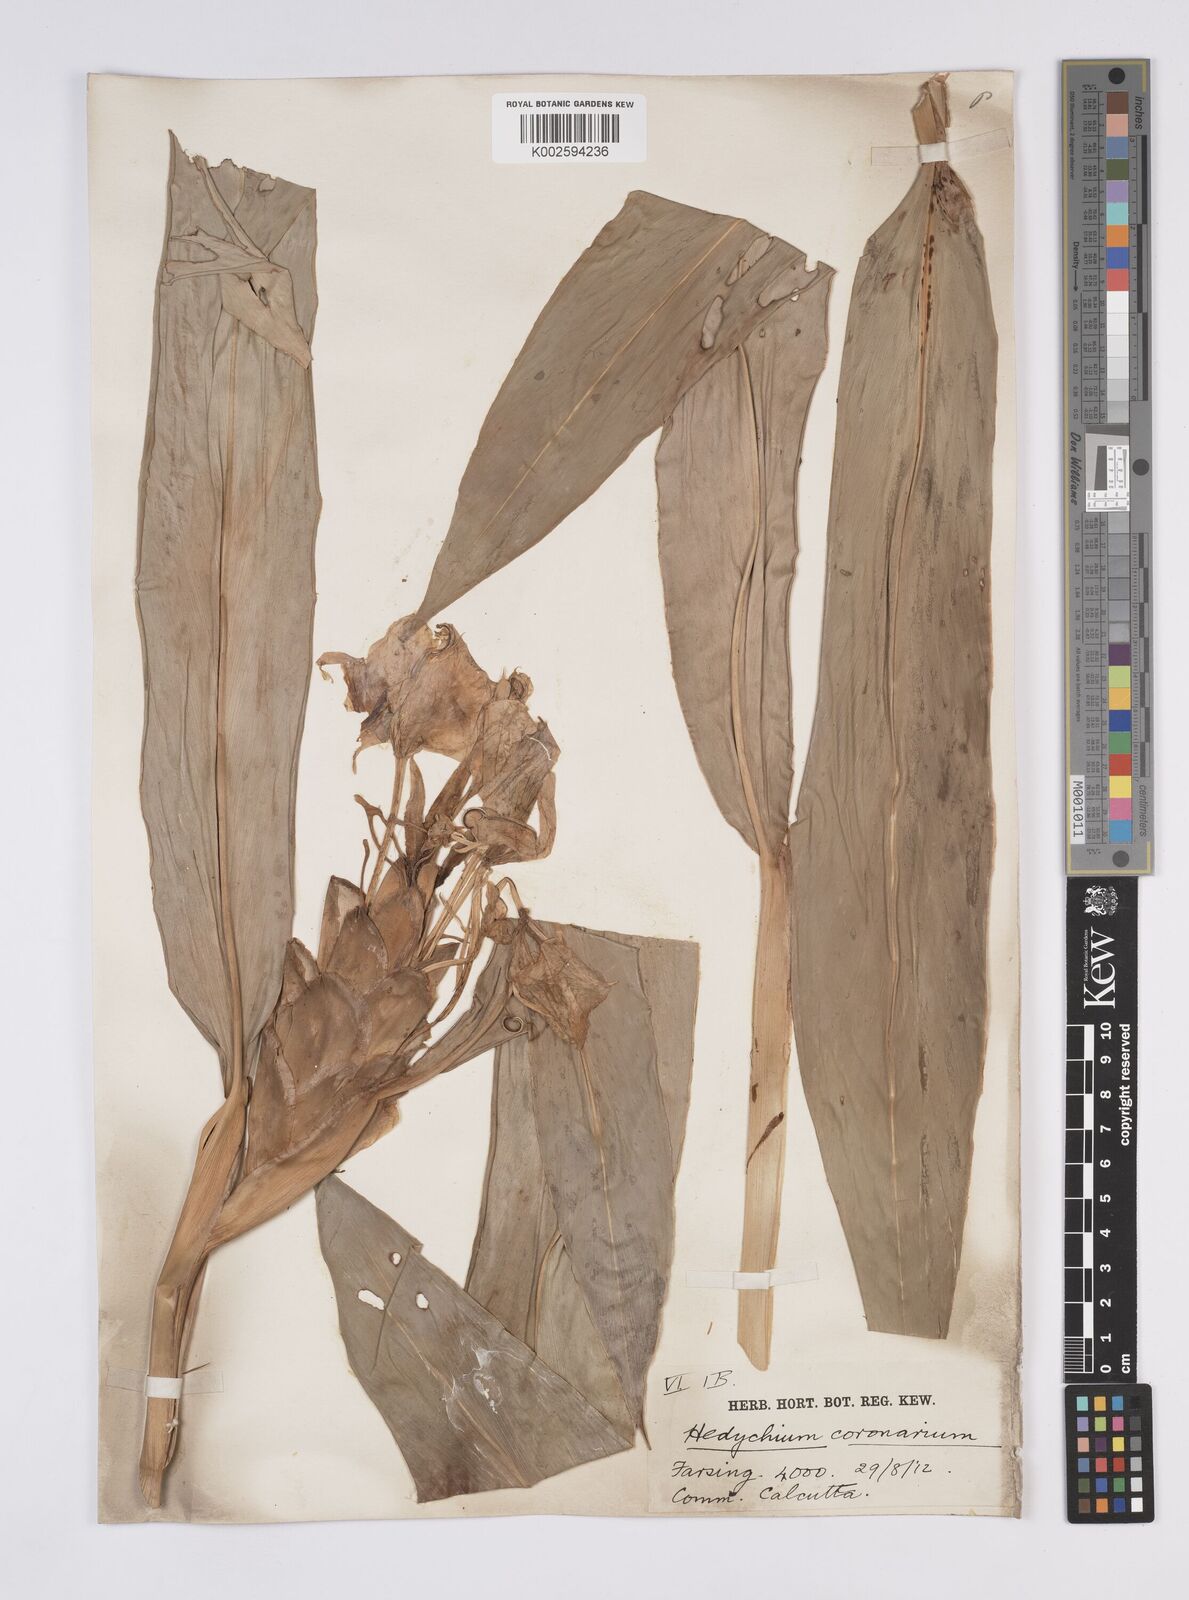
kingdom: Plantae
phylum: Tracheophyta
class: Liliopsida
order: Zingiberales
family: Zingiberaceae
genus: Hedychium
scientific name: Hedychium
